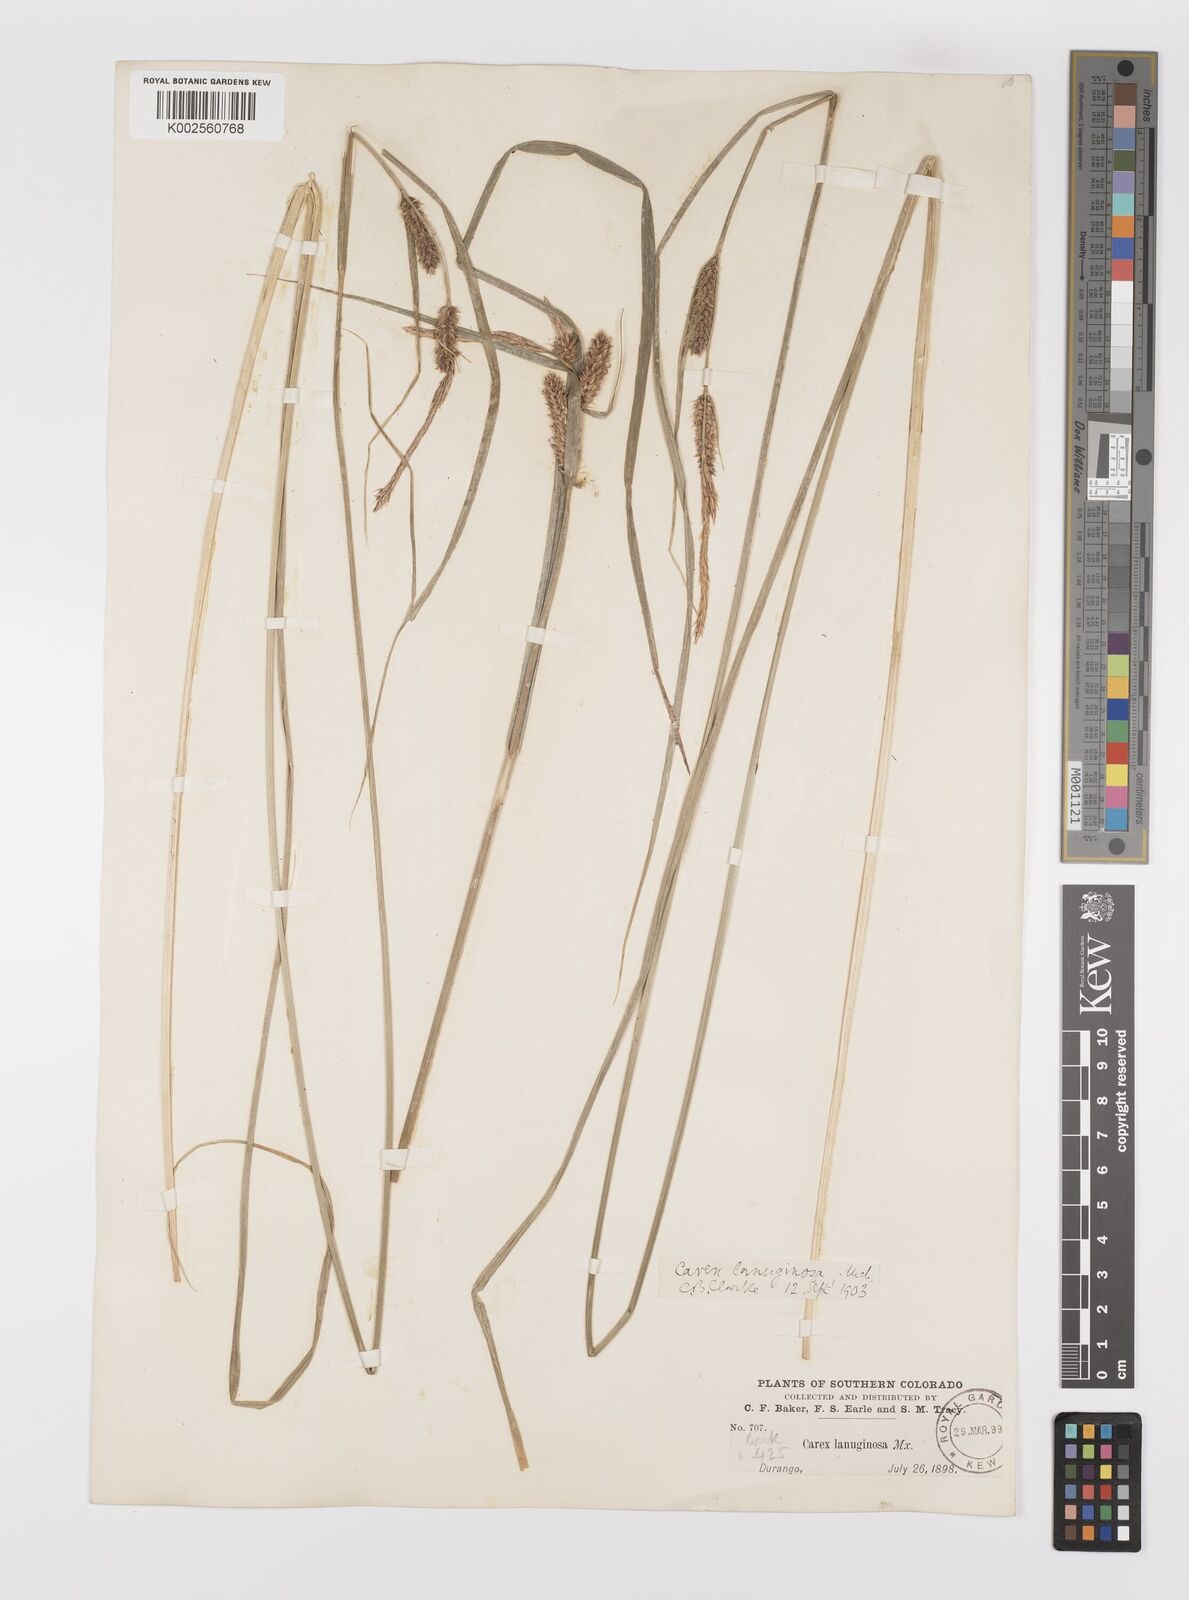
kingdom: Plantae
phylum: Tracheophyta
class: Liliopsida
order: Poales
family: Cyperaceae
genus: Carex
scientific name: Carex lasiocarpa
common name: Slender sedge
